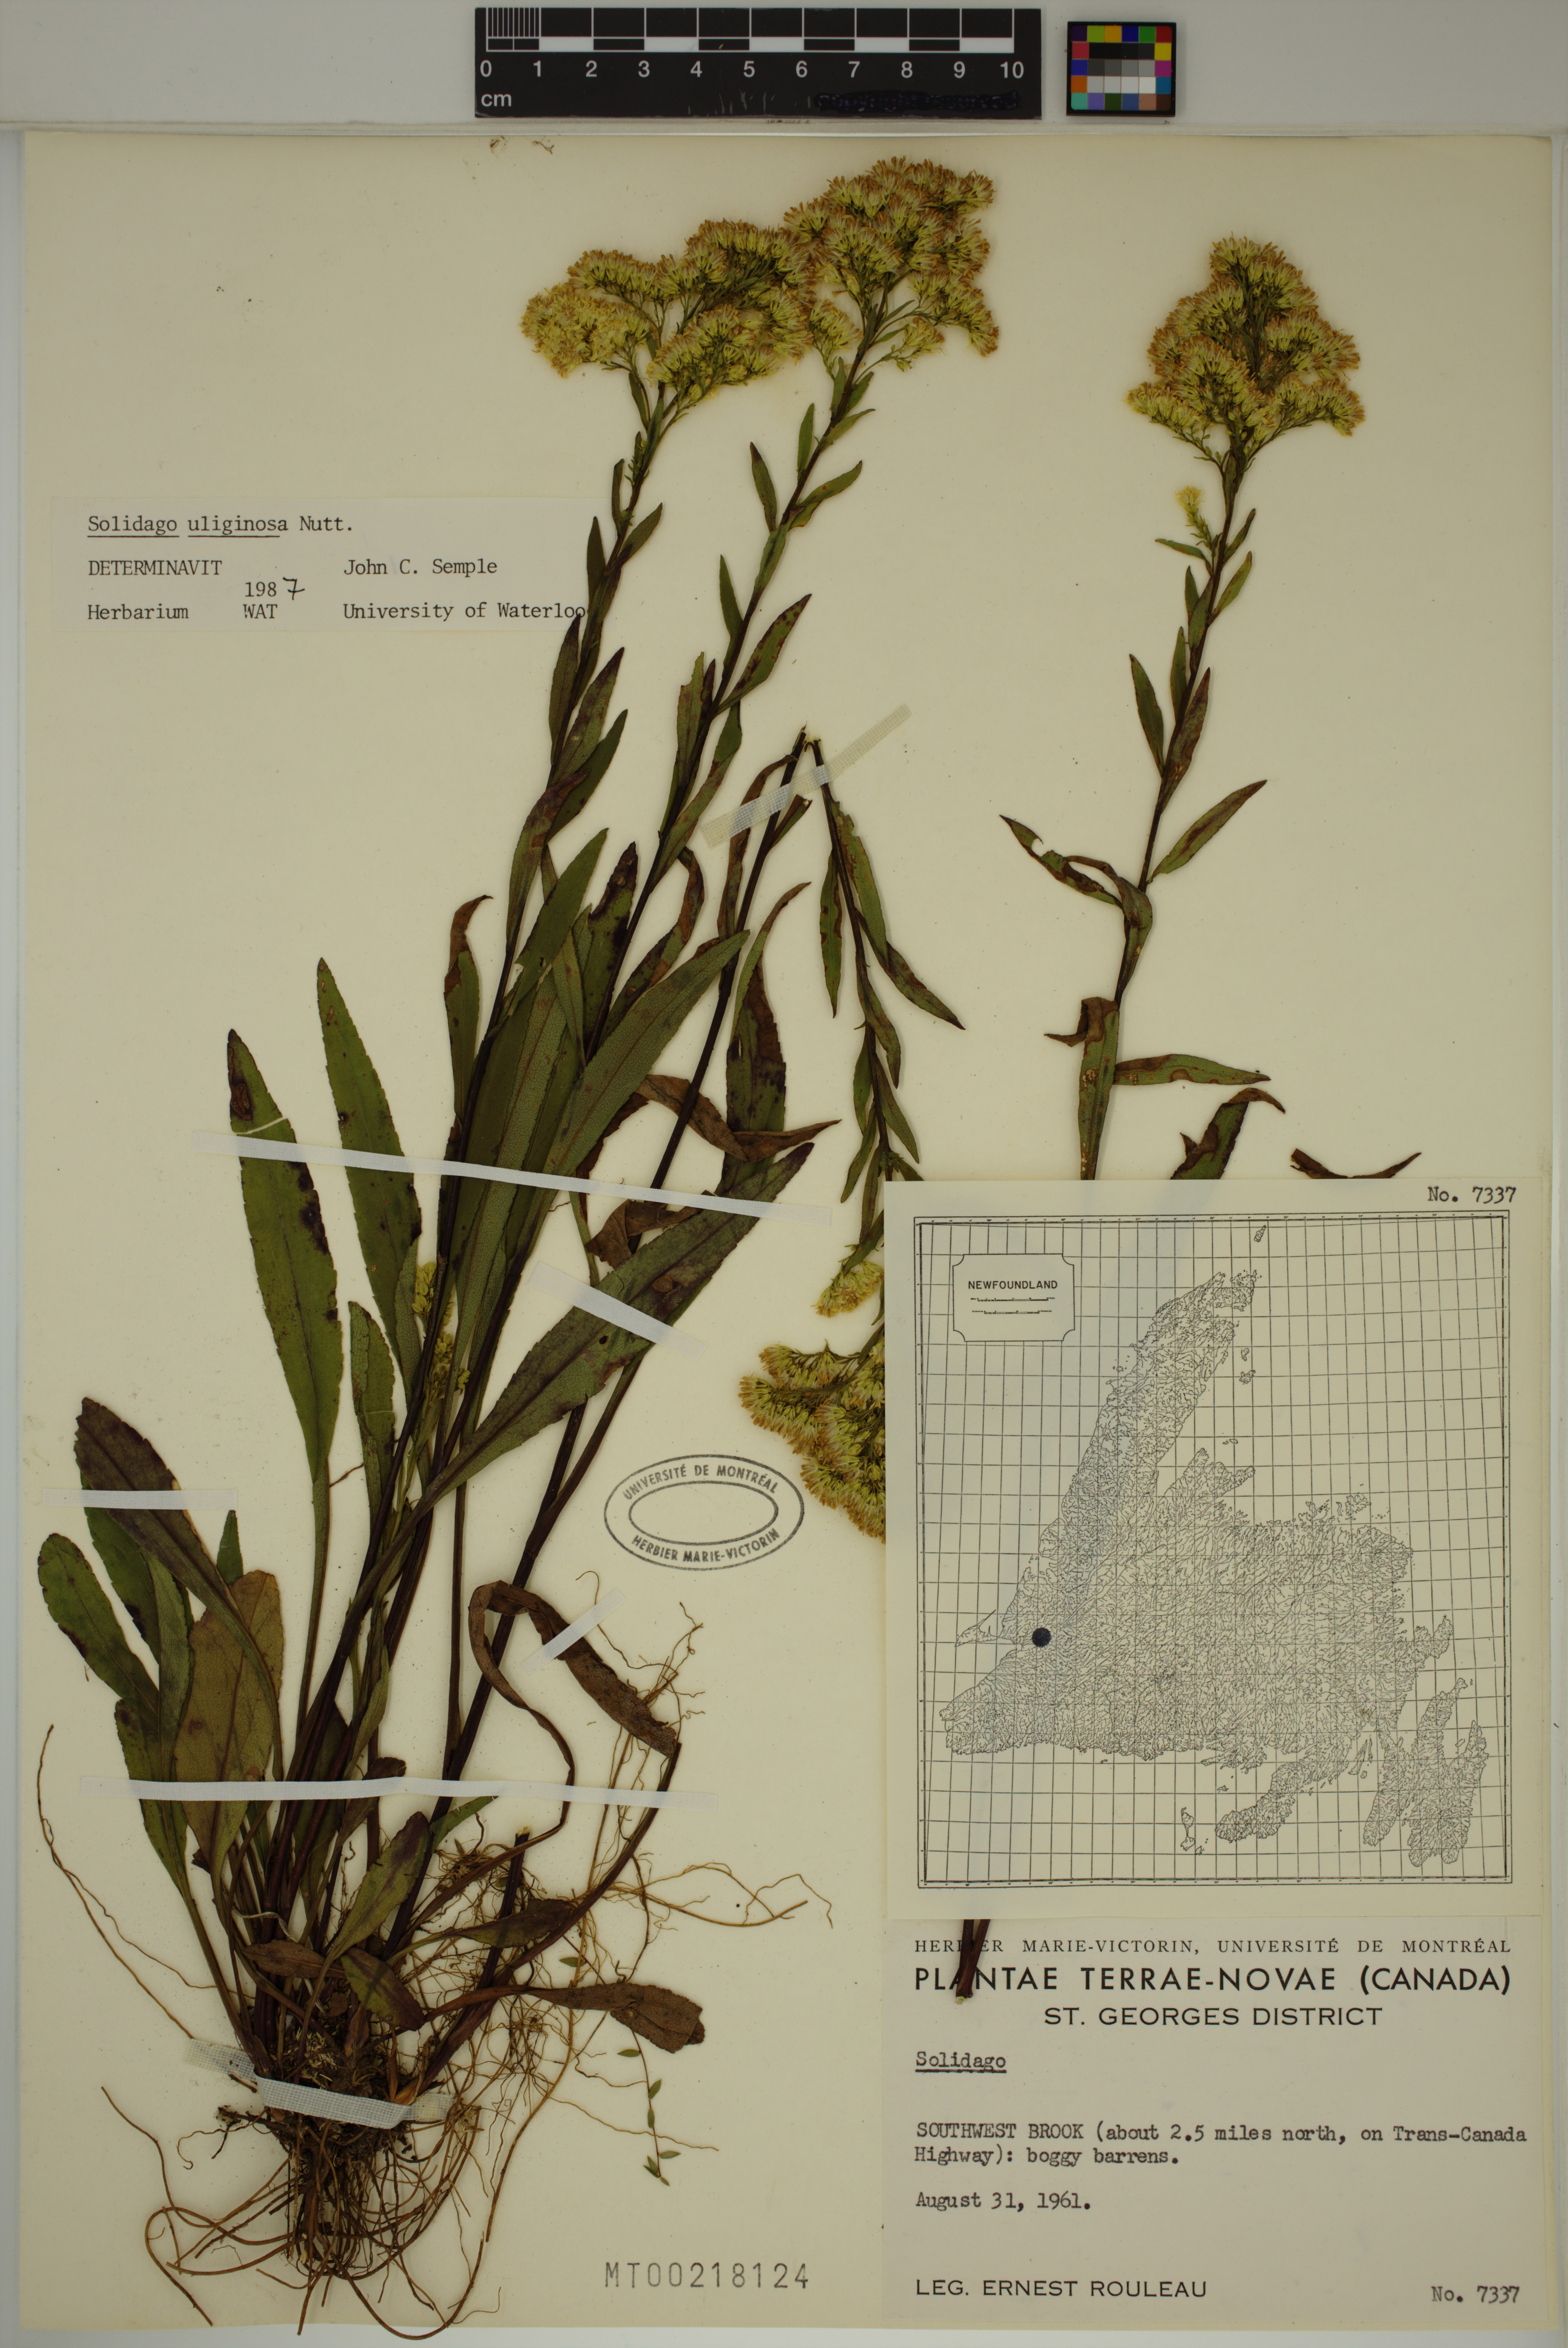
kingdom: Plantae
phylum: Tracheophyta
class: Magnoliopsida
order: Asterales
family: Asteraceae
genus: Solidago
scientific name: Solidago uliginosa
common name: Bog goldenrod
